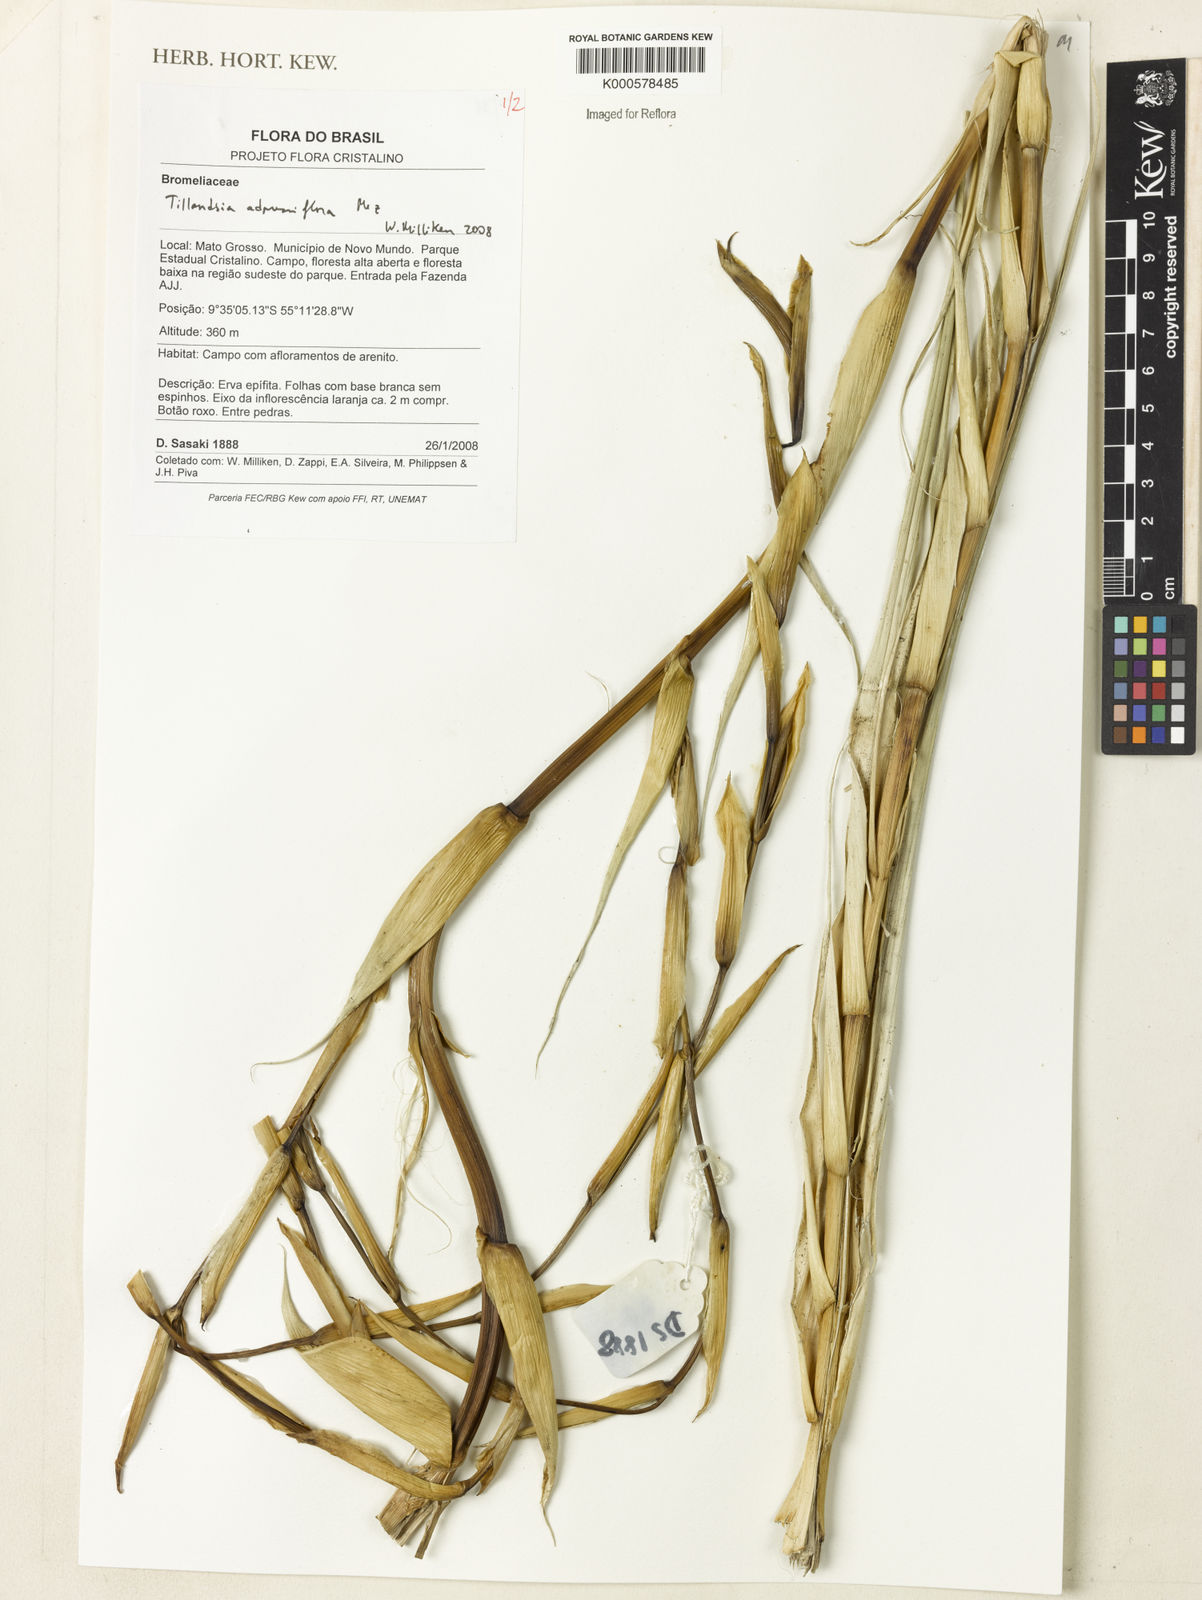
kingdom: Plantae
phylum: Tracheophyta
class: Liliopsida
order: Poales
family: Bromeliaceae
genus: Tillandsia
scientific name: Tillandsia adpressiflora
